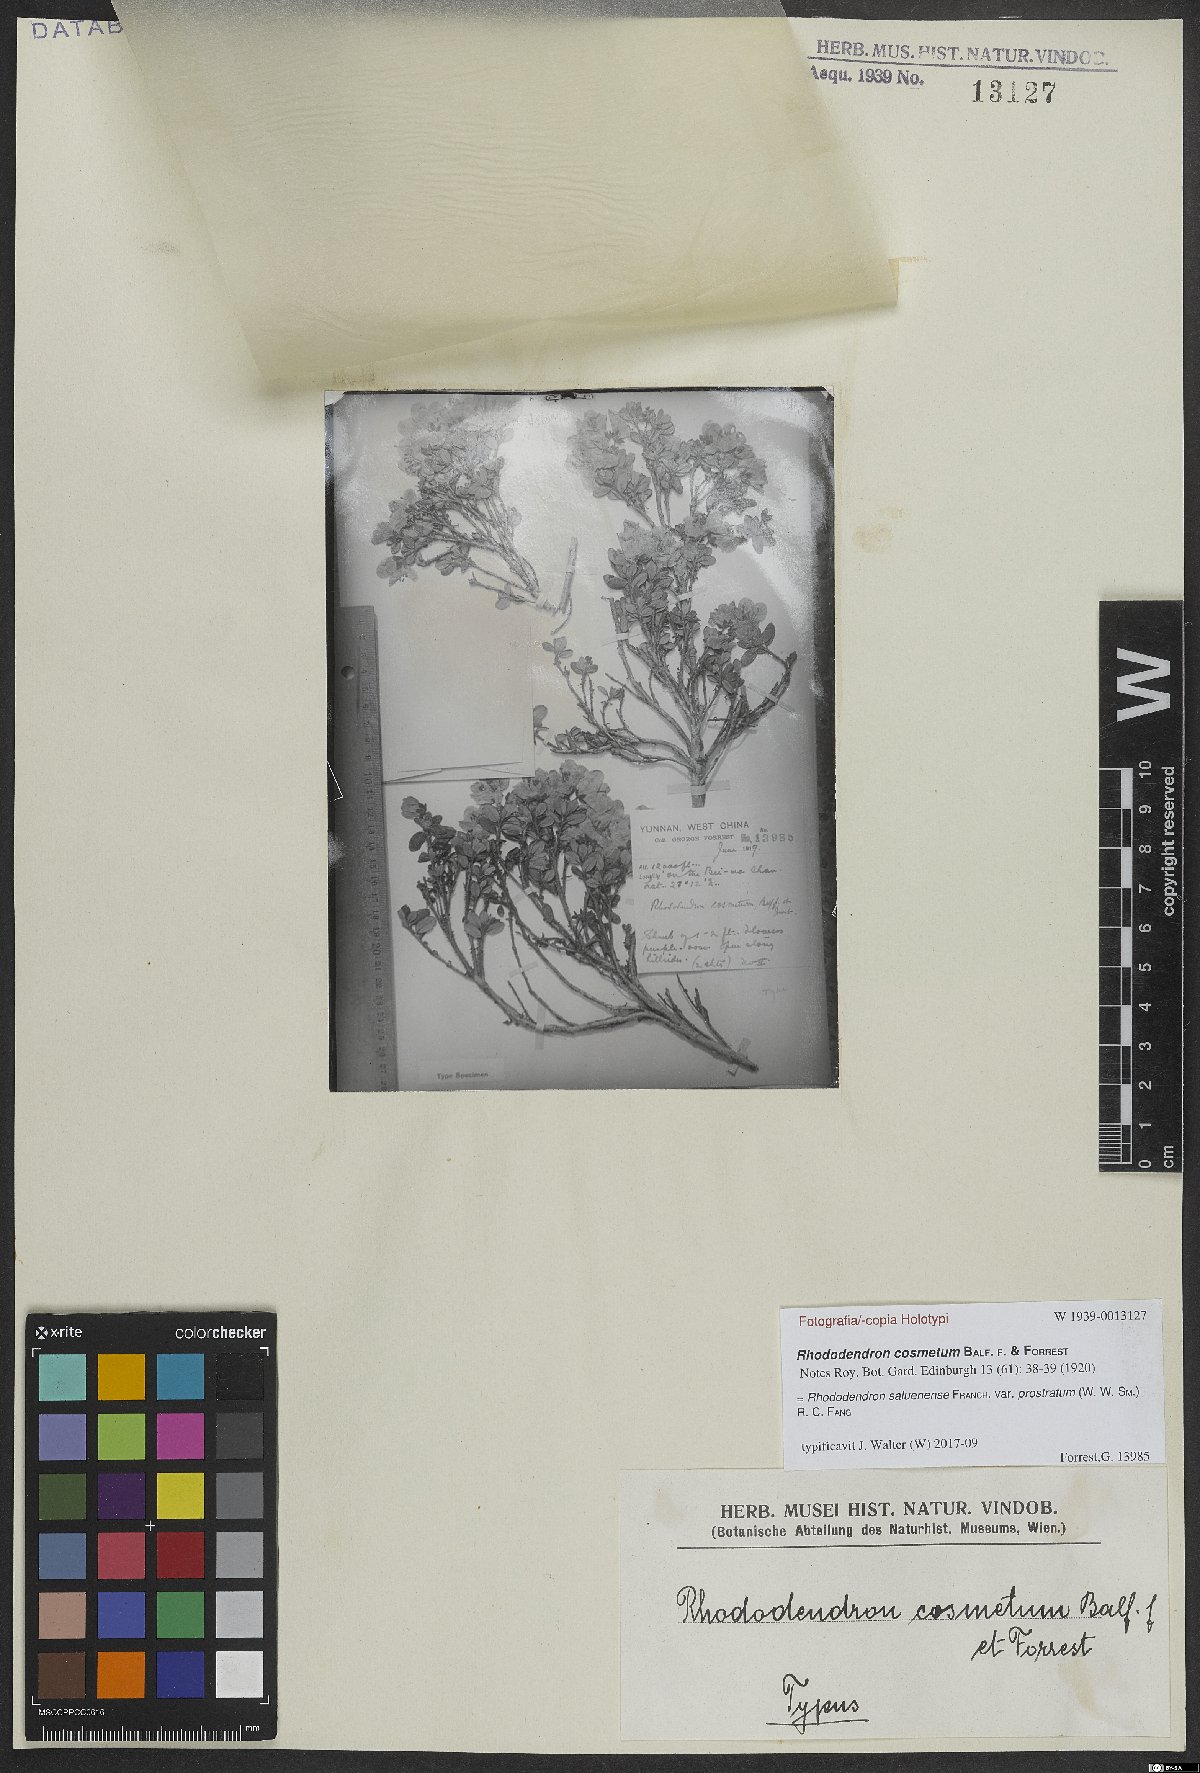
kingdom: Plantae
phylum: Tracheophyta
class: Magnoliopsida
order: Ericales
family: Ericaceae
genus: Rhododendron
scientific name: Rhododendron saluenense
